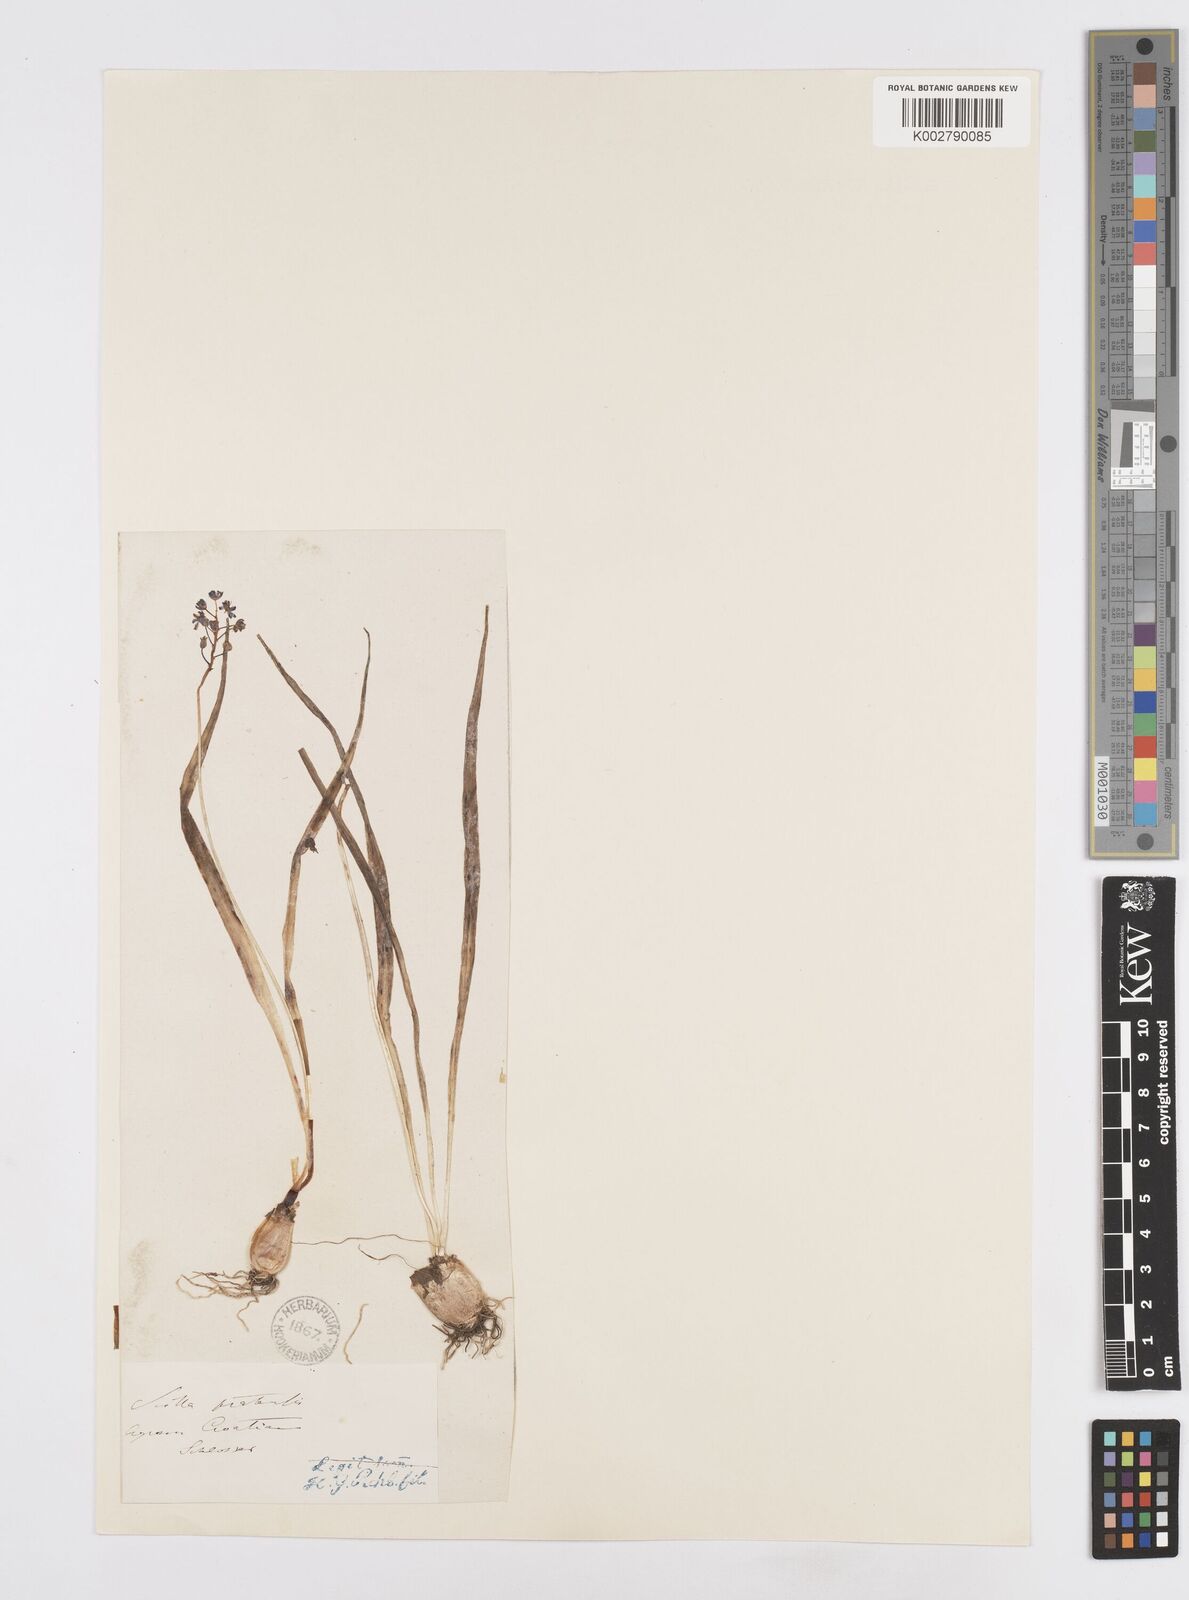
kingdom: Plantae
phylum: Tracheophyta
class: Liliopsida
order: Asparagales
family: Asparagaceae
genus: Scilla
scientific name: Scilla litardierei
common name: Amethyst meadow squill
